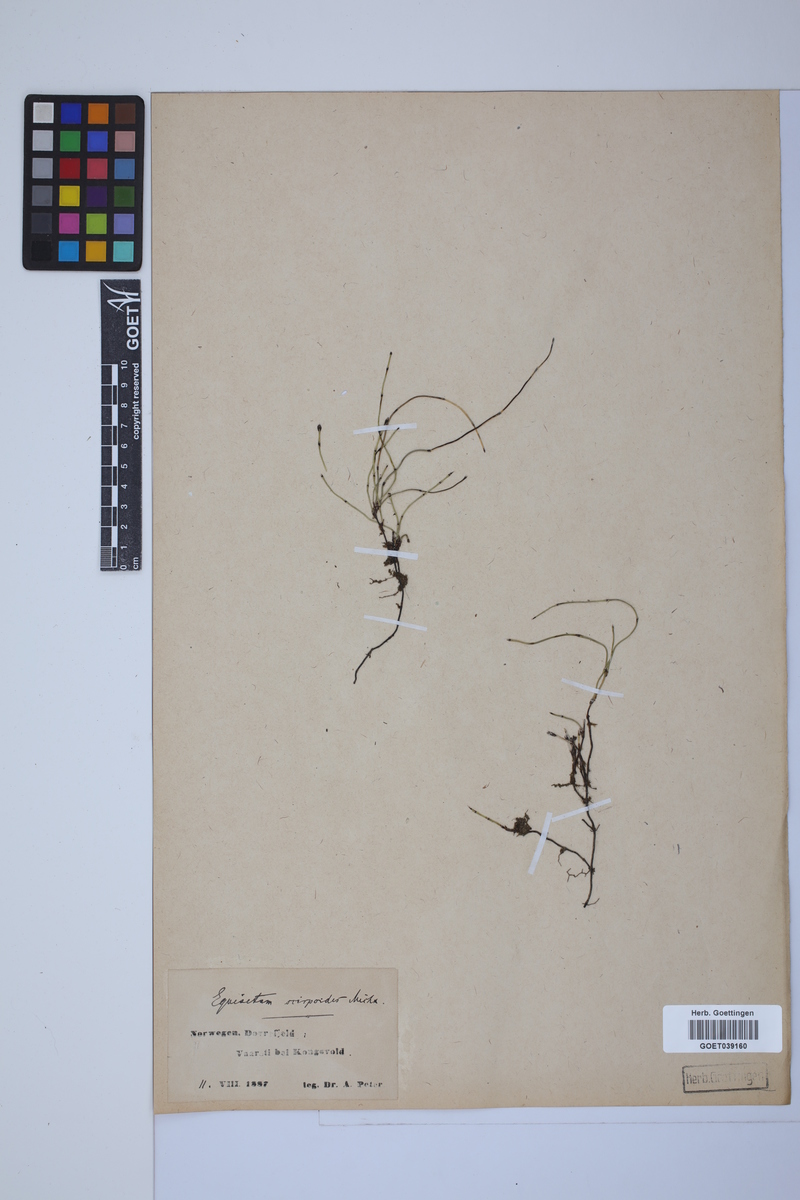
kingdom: Plantae
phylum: Tracheophyta
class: Polypodiopsida
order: Equisetales
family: Equisetaceae
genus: Equisetum
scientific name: Equisetum scirpoides
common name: Delicate horsetail
